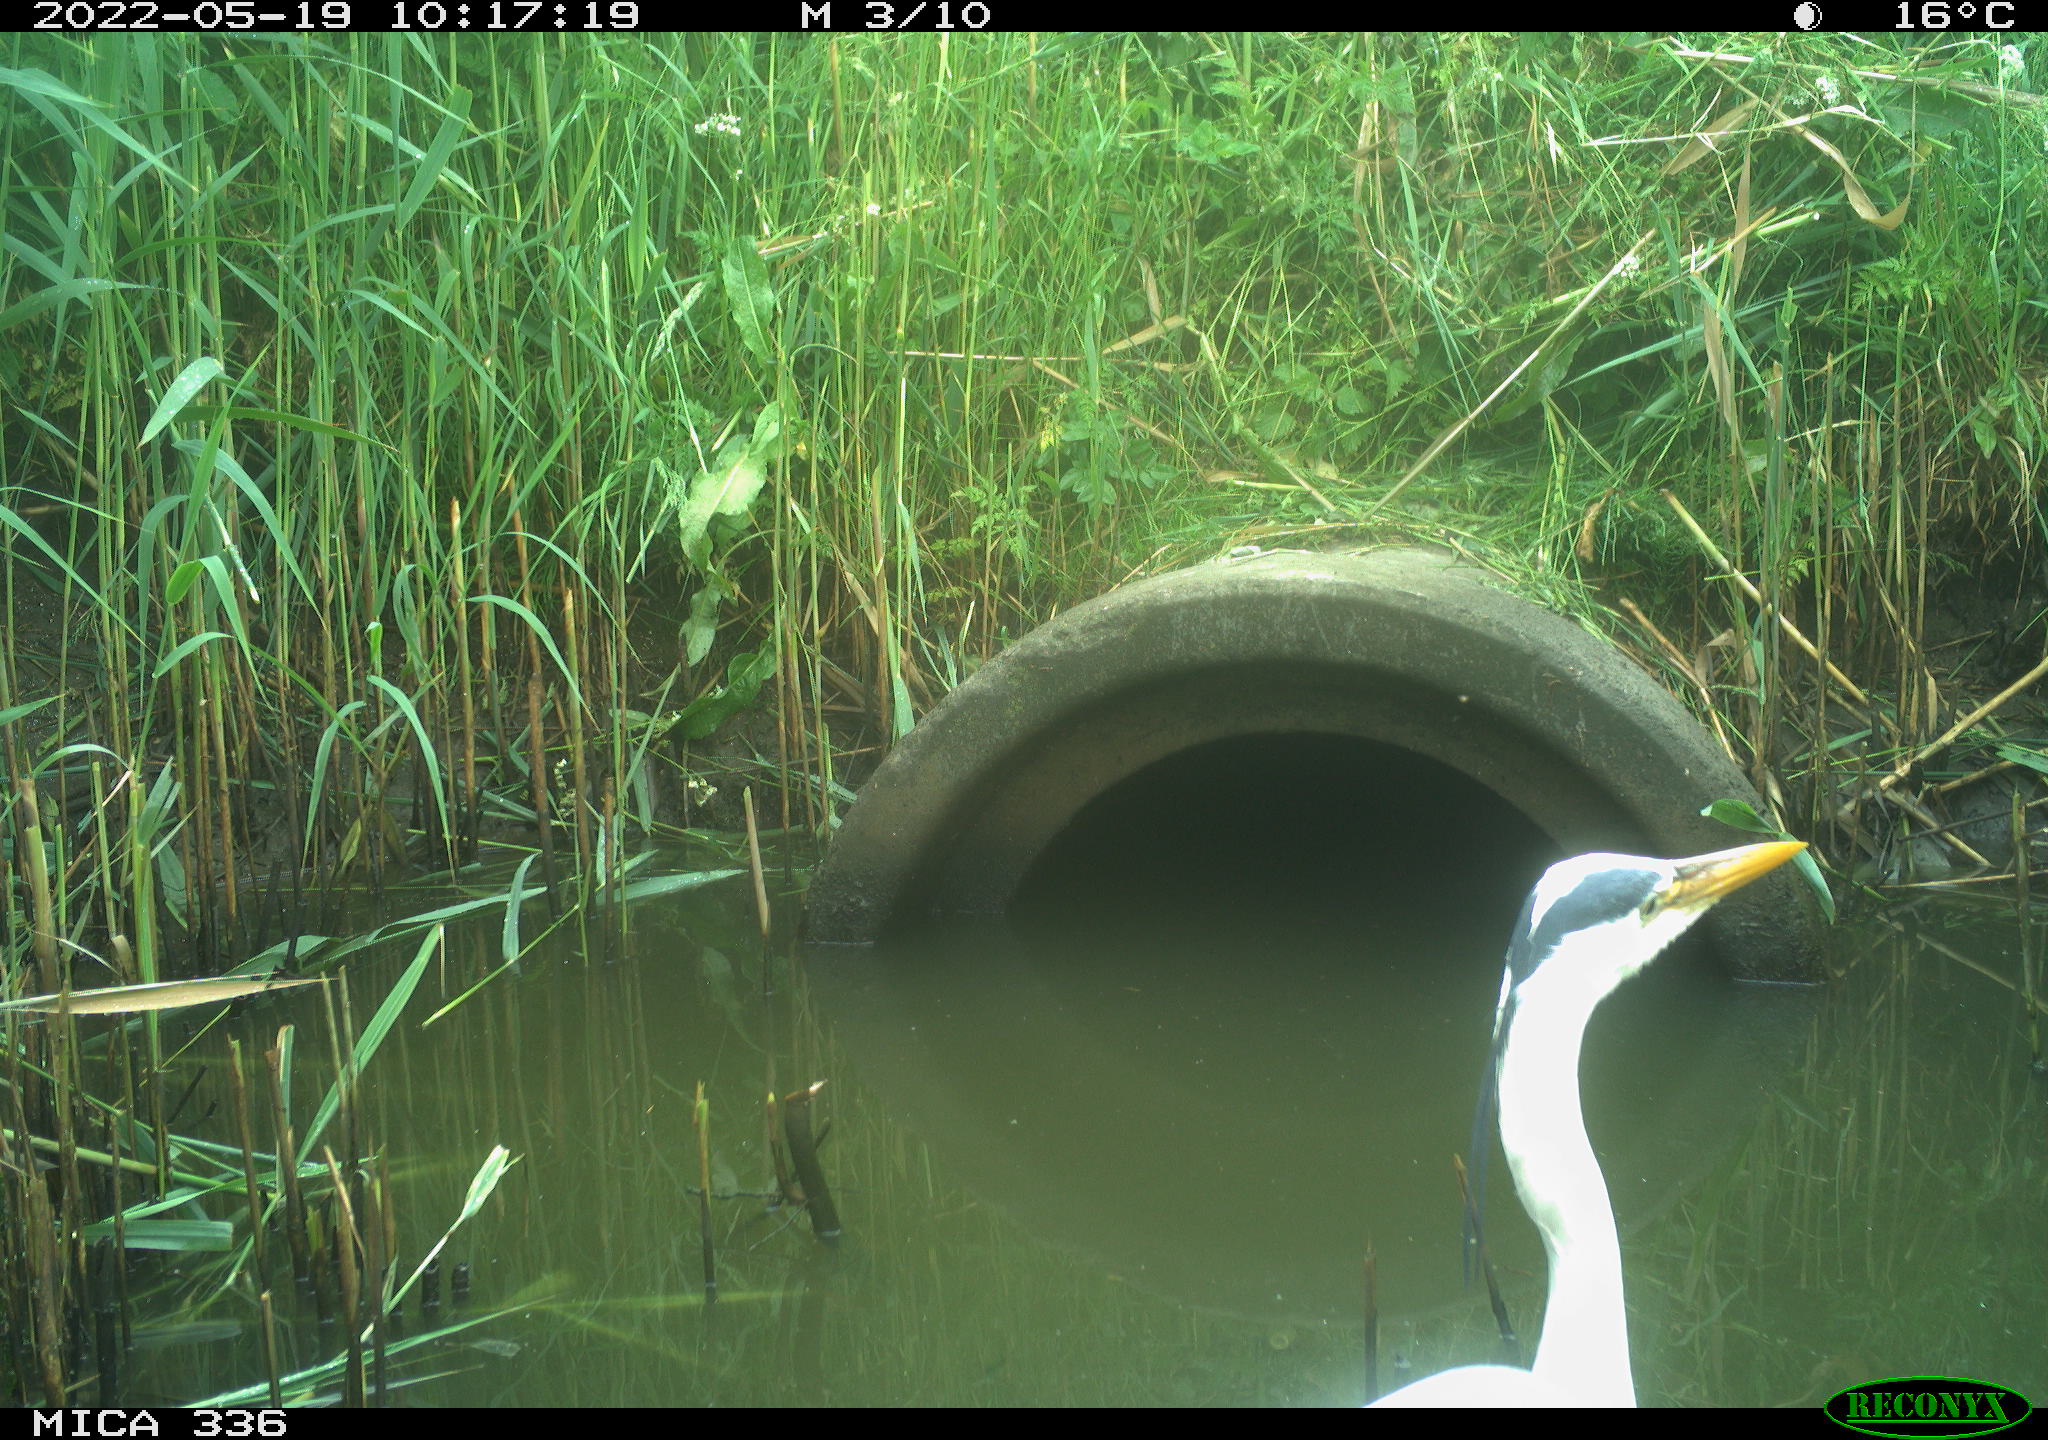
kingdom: Animalia
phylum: Chordata
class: Aves
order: Pelecaniformes
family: Ardeidae
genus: Ardea
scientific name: Ardea
